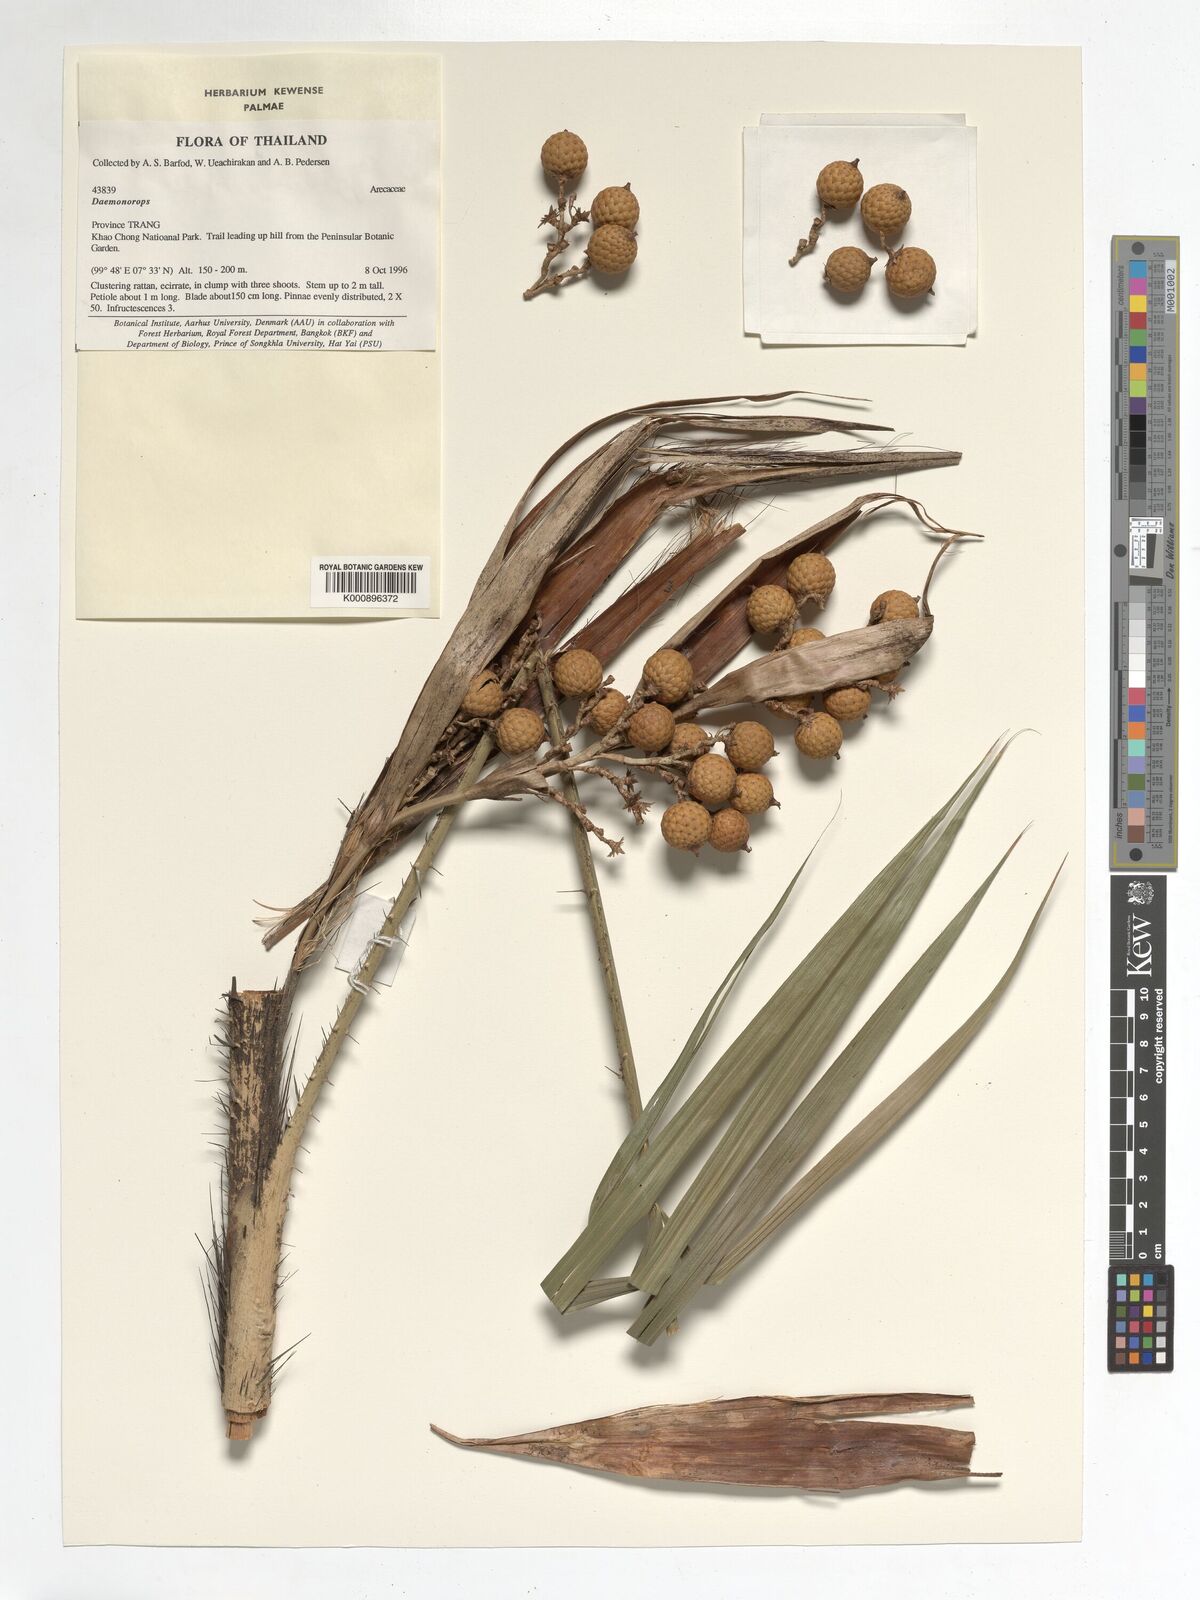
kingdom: Plantae
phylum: Tracheophyta
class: Liliopsida
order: Arecales
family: Arecaceae
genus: Daemonorops
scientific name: Daemonorops
